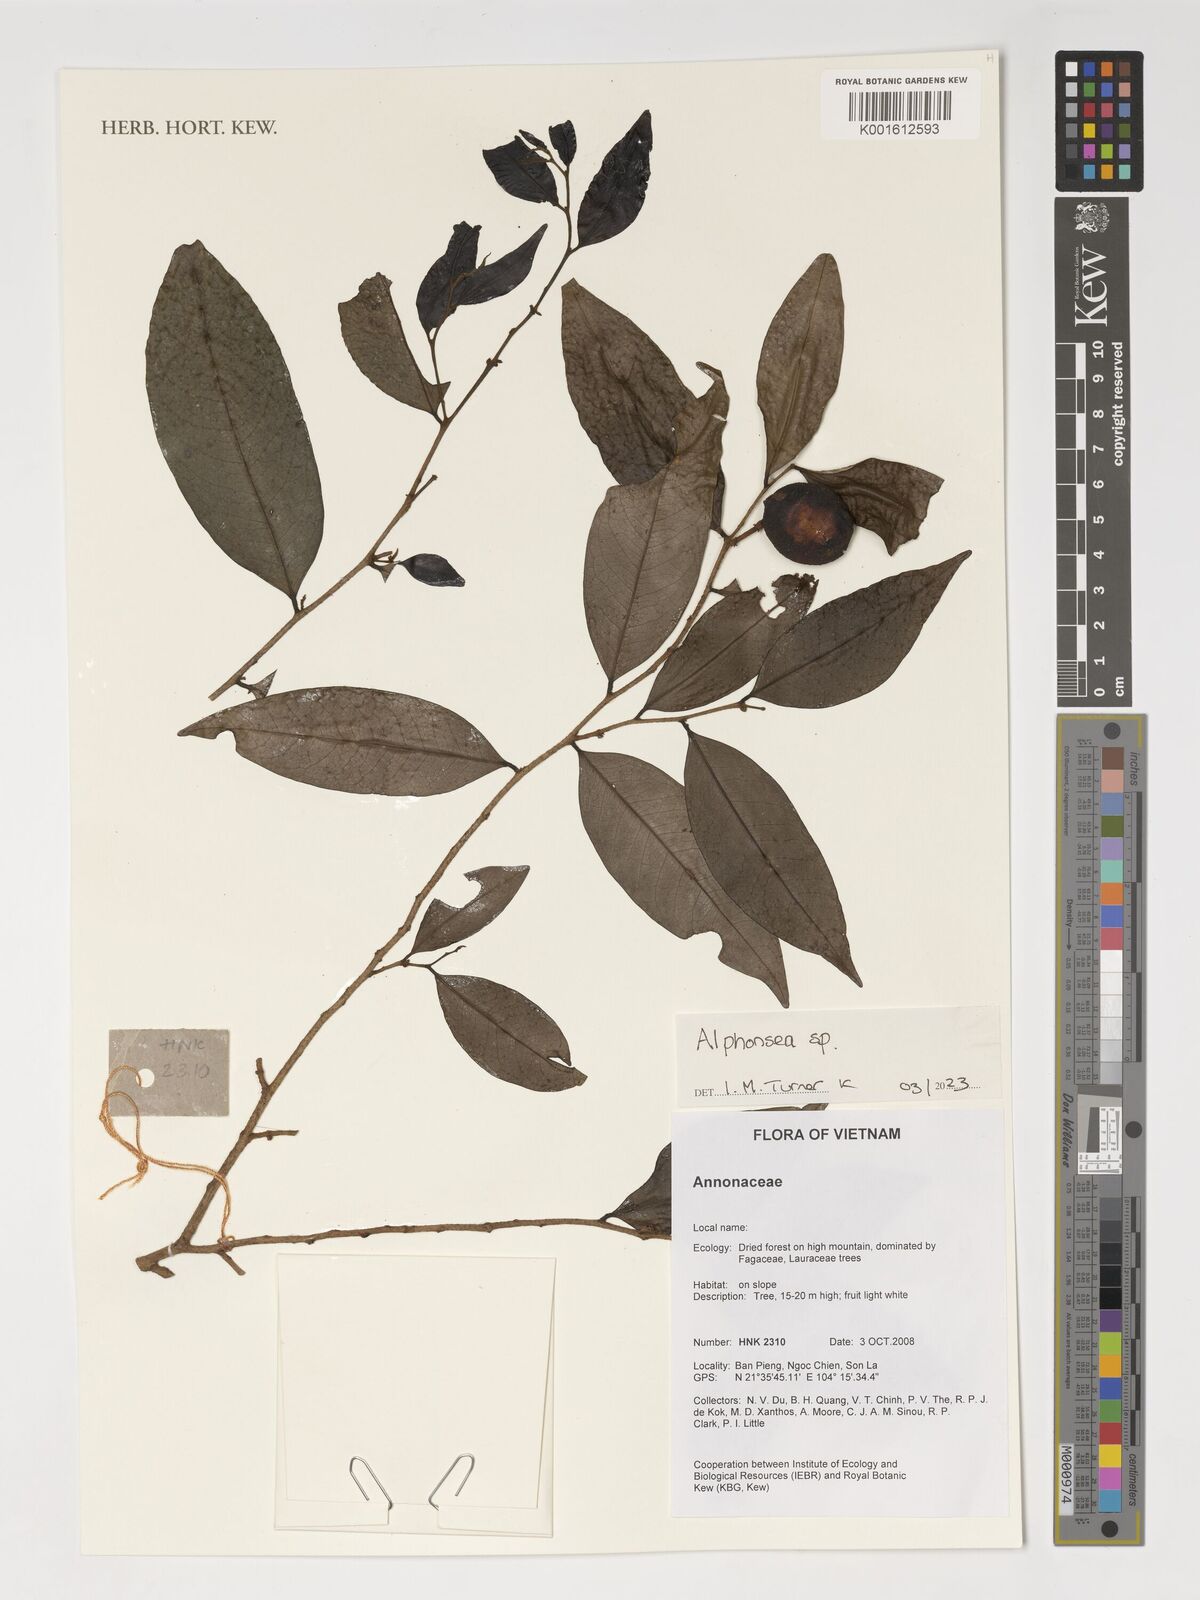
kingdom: Plantae
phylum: Tracheophyta
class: Magnoliopsida
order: Magnoliales
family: Annonaceae
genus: Alphonsea
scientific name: Alphonsea
